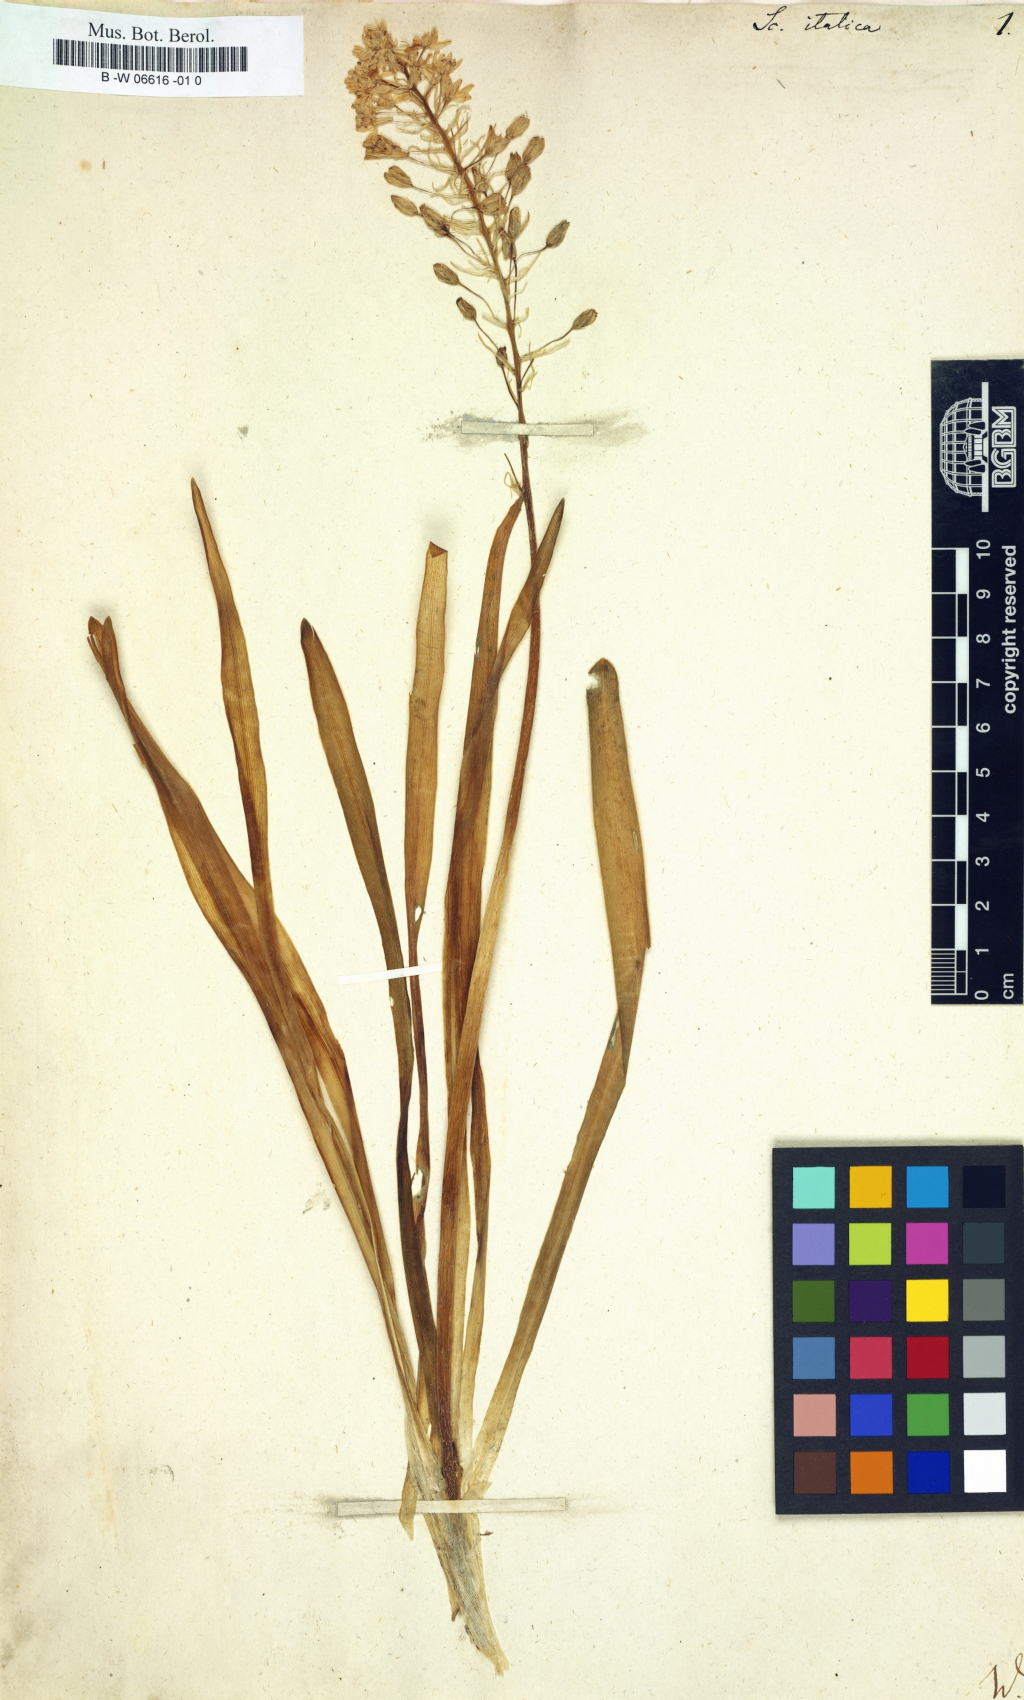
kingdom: Plantae
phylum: Tracheophyta
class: Liliopsida
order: Asparagales
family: Asparagaceae
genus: Scilla
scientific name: Scilla italica
